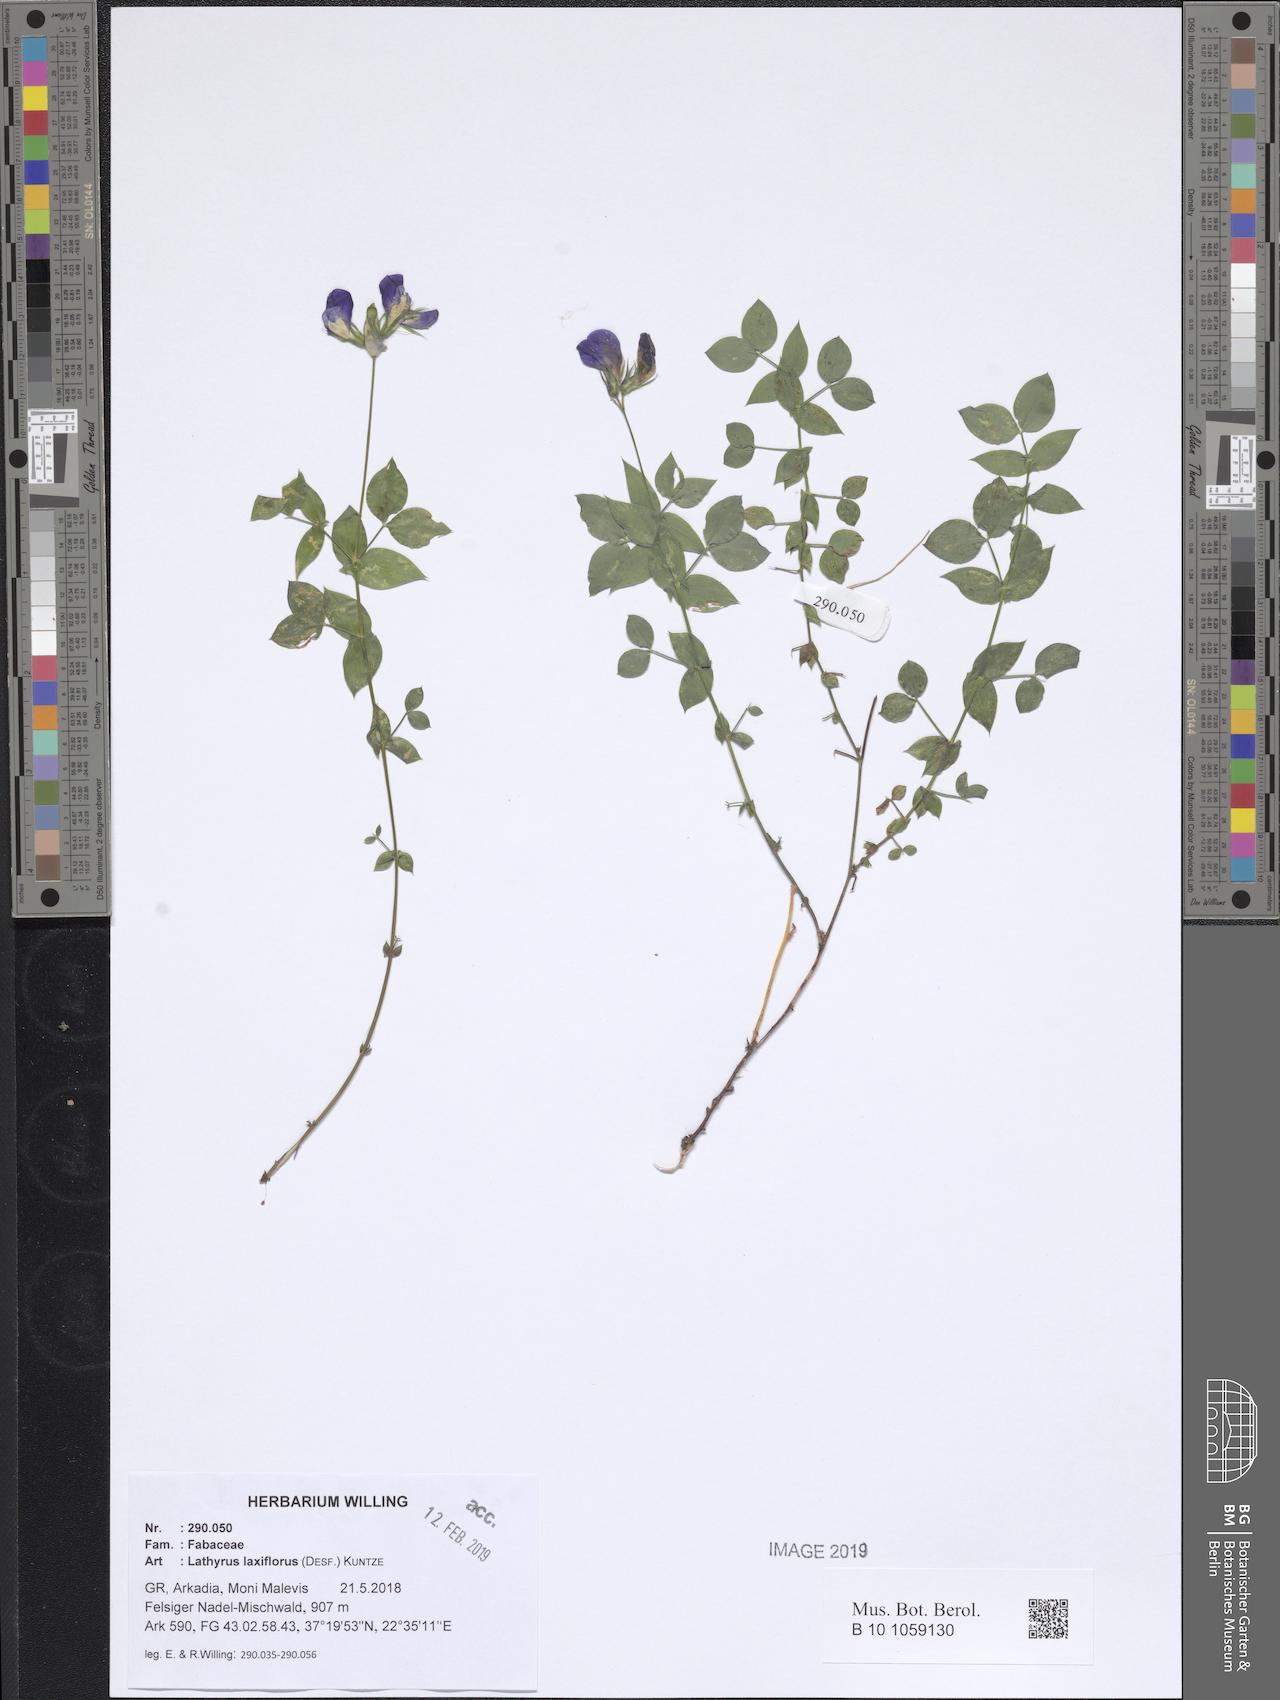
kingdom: Plantae
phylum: Tracheophyta
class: Magnoliopsida
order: Fabales
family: Fabaceae
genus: Lathyrus
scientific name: Lathyrus laxiflorus
